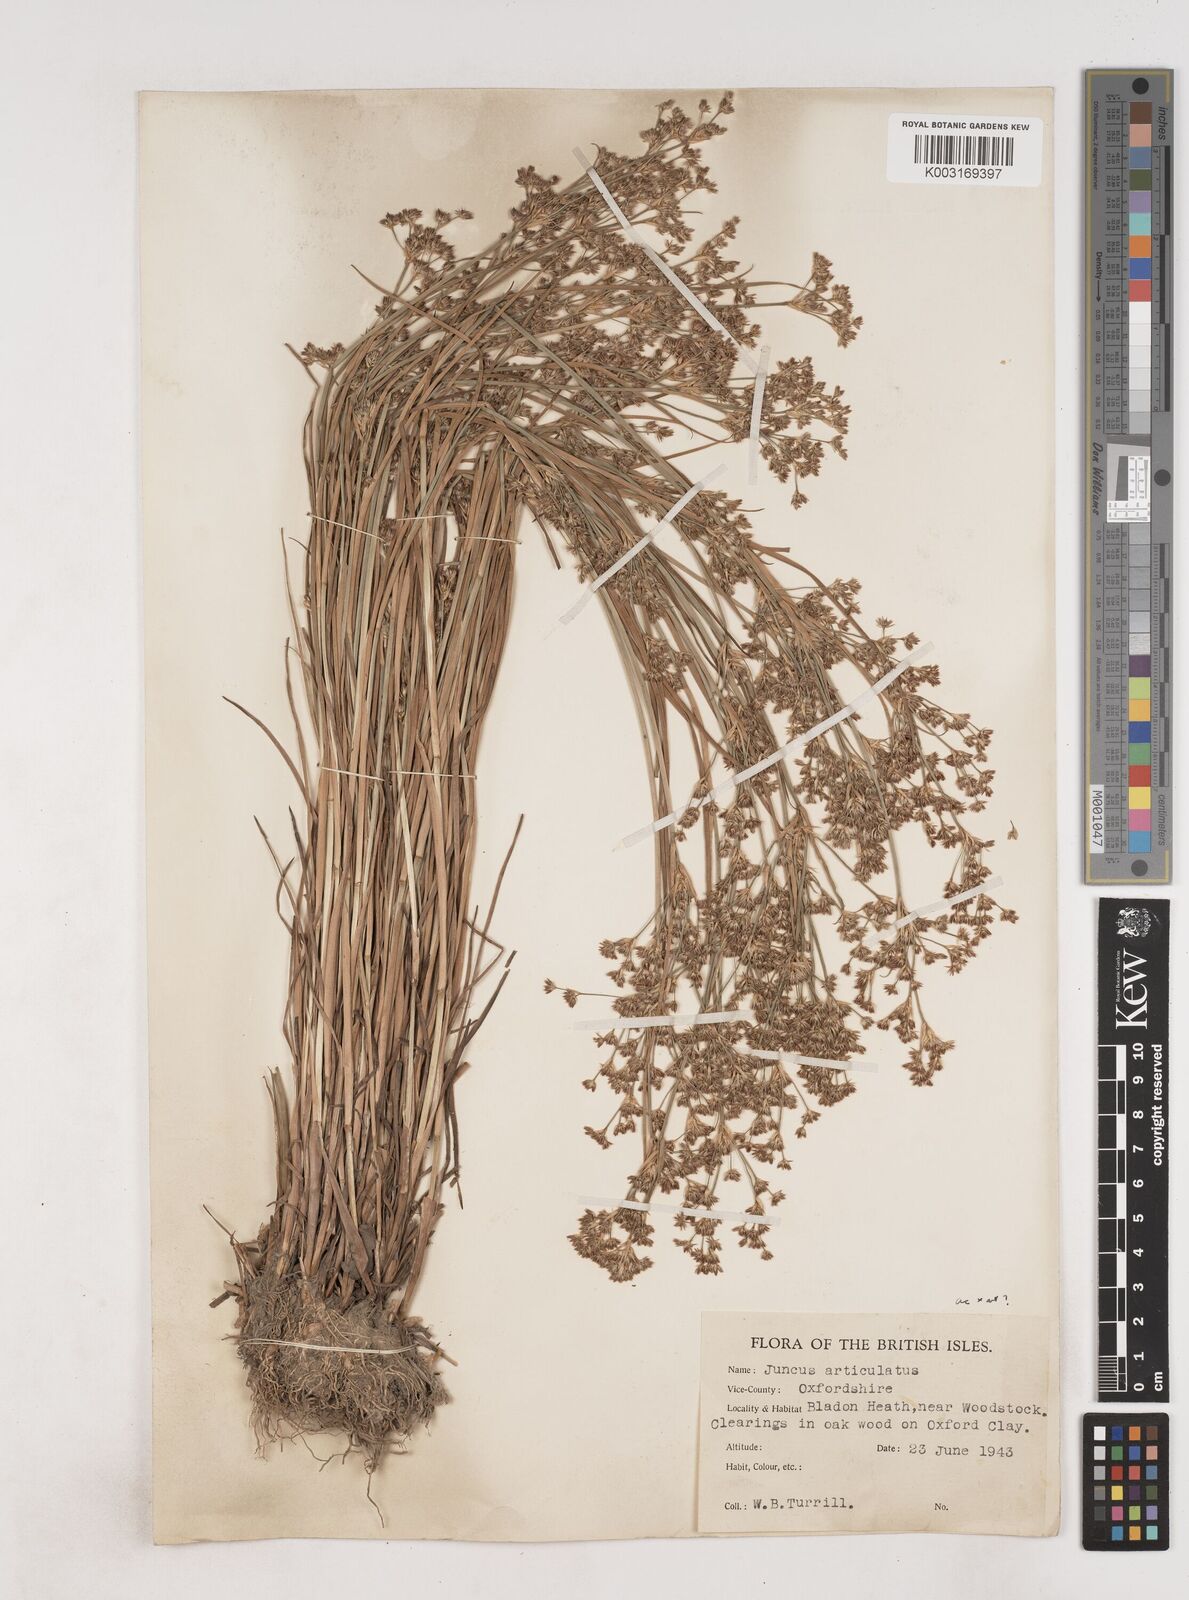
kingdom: Plantae
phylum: Tracheophyta
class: Liliopsida
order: Poales
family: Juncaceae
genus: Juncus
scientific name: Juncus acutiflorus
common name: Sharp-flowered rush
